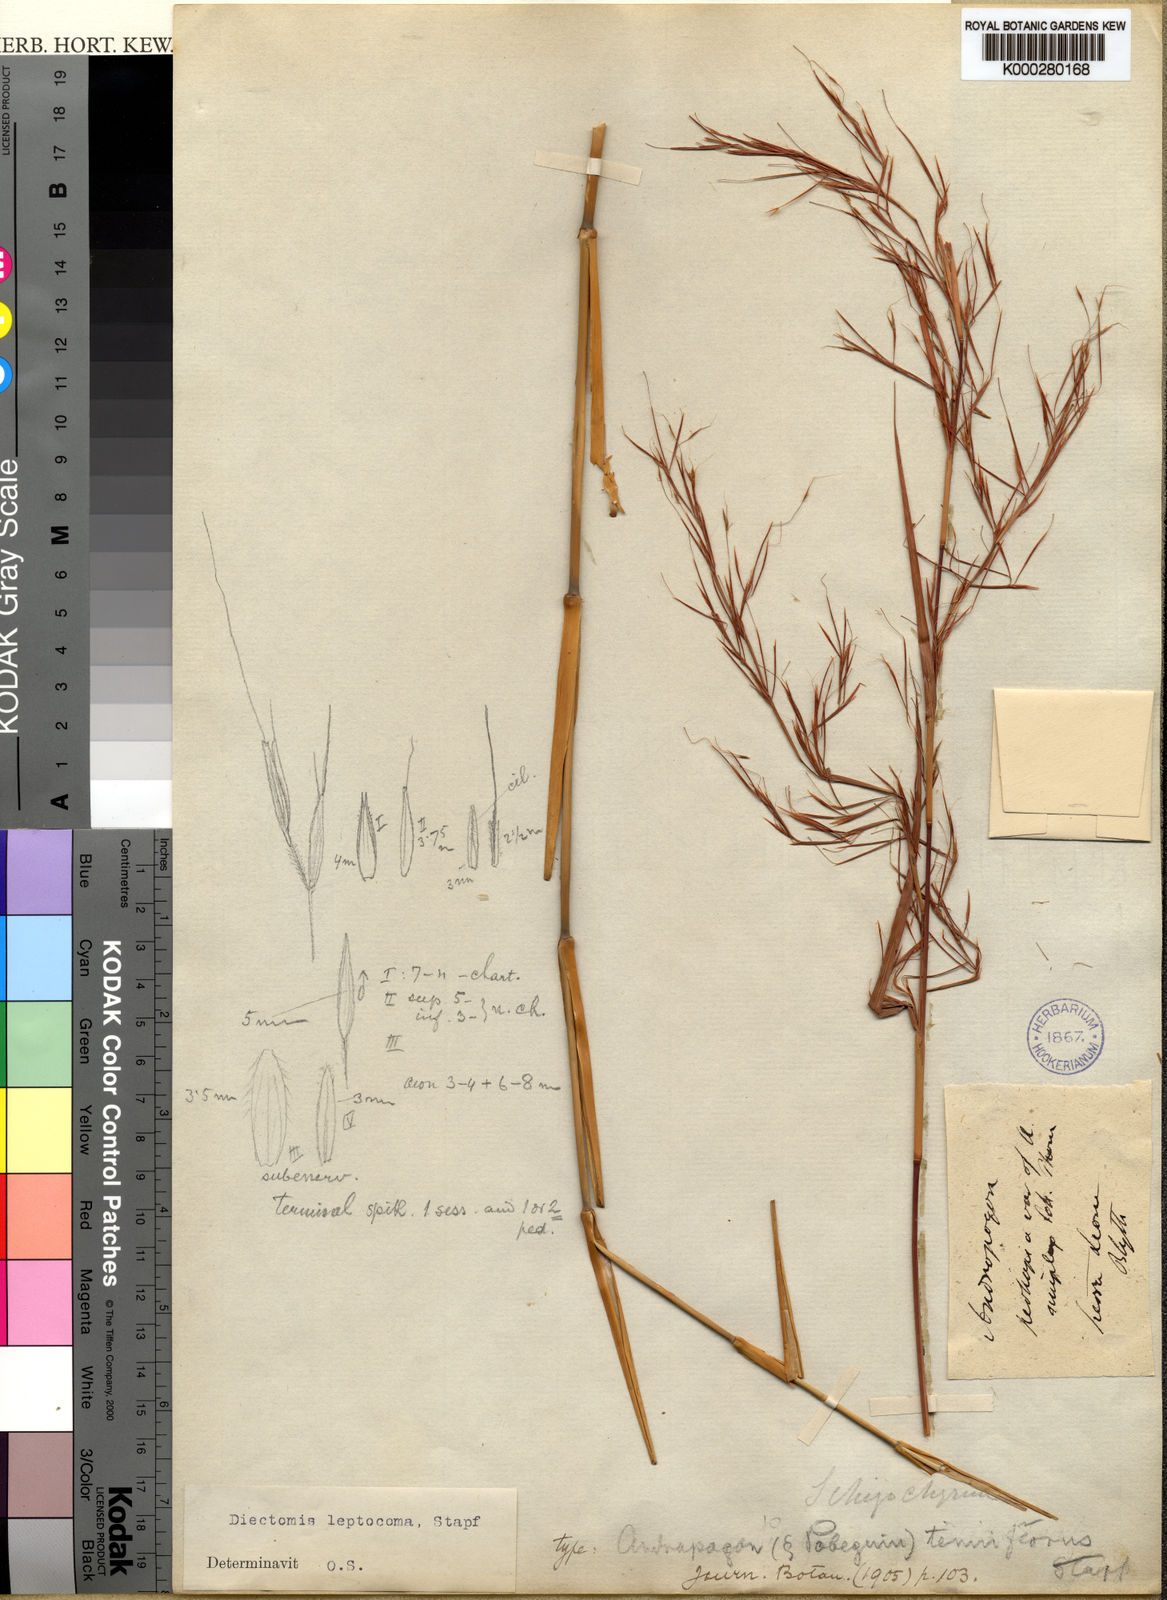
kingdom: Plantae
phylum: Tracheophyta
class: Liliopsida
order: Poales
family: Poaceae
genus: Anadelphia
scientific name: Anadelphia leptocoma
